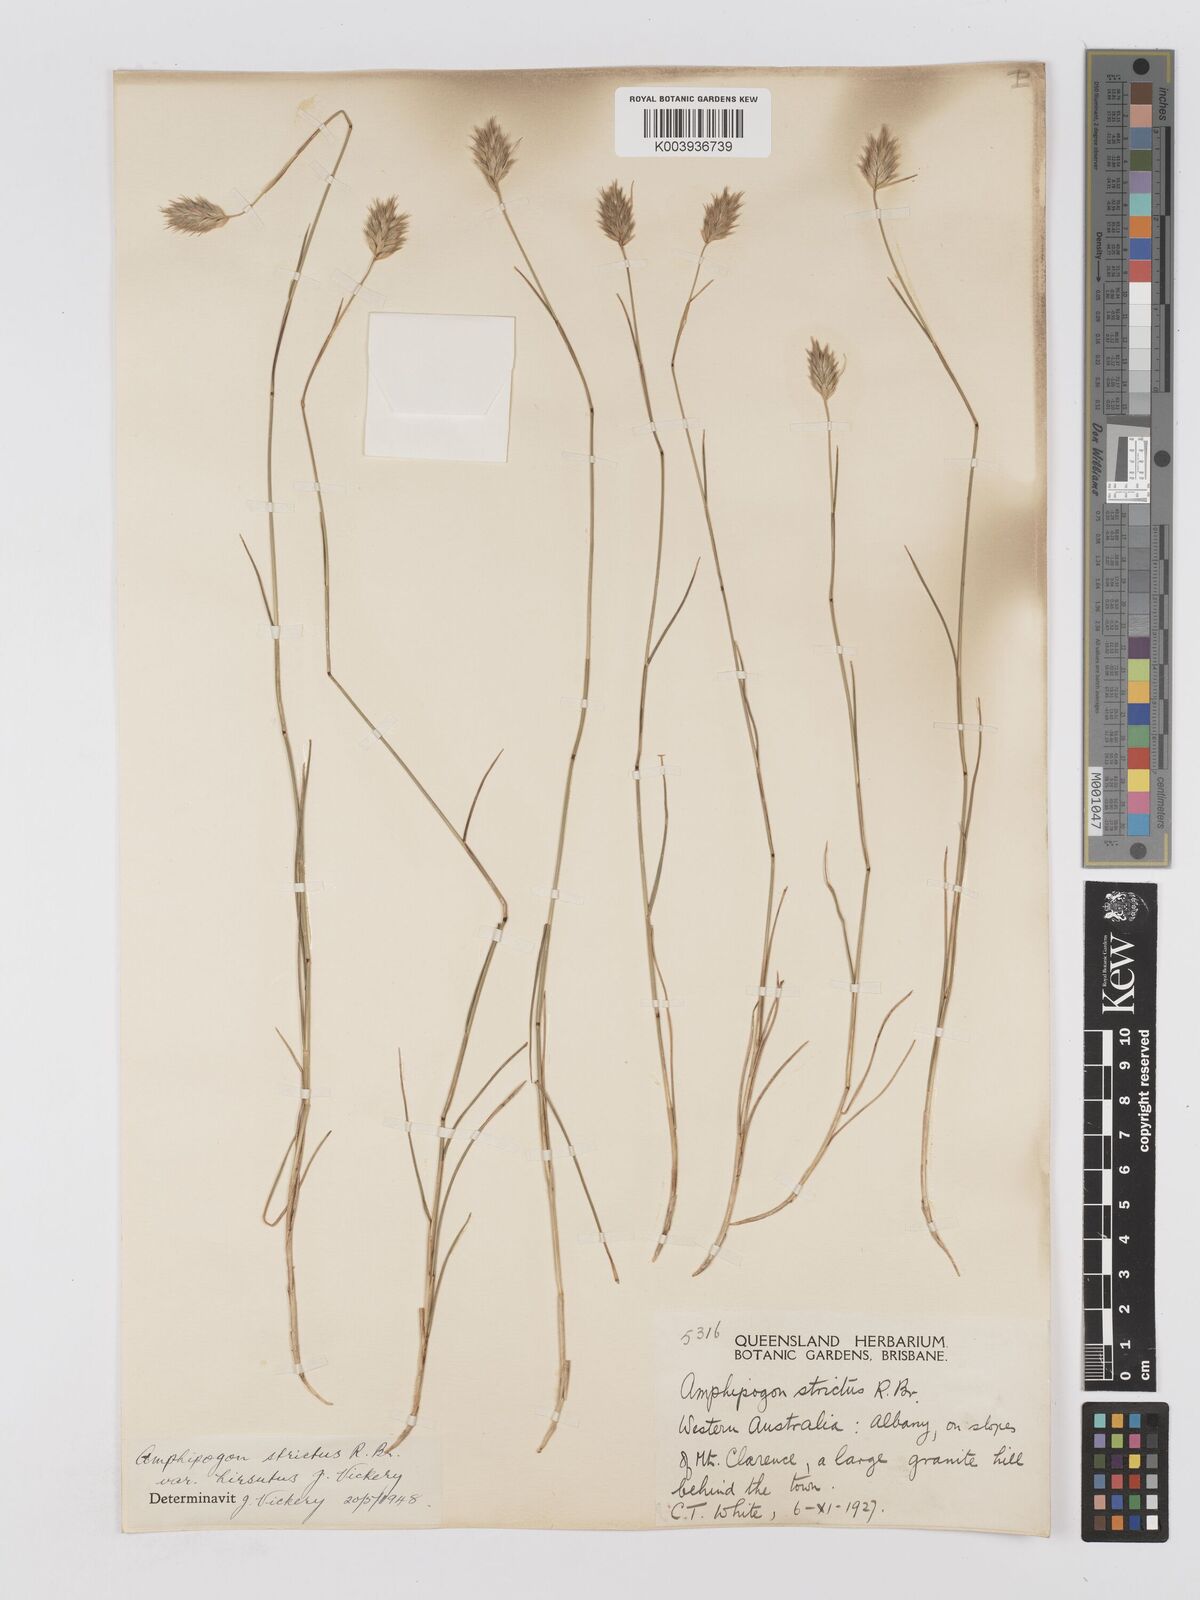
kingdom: Plantae
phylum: Tracheophyta
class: Liliopsida
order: Poales
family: Poaceae
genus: Amphipogon
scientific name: Amphipogon strictus
